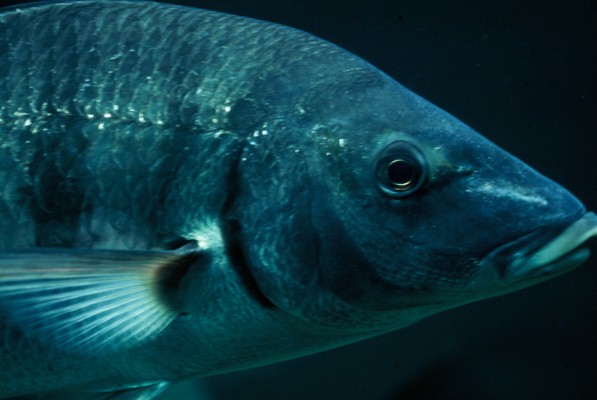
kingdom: Animalia
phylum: Chordata
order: Perciformes
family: Sparidae
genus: Lithognathus
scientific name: Lithognathus lithognathus
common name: White steenbras
